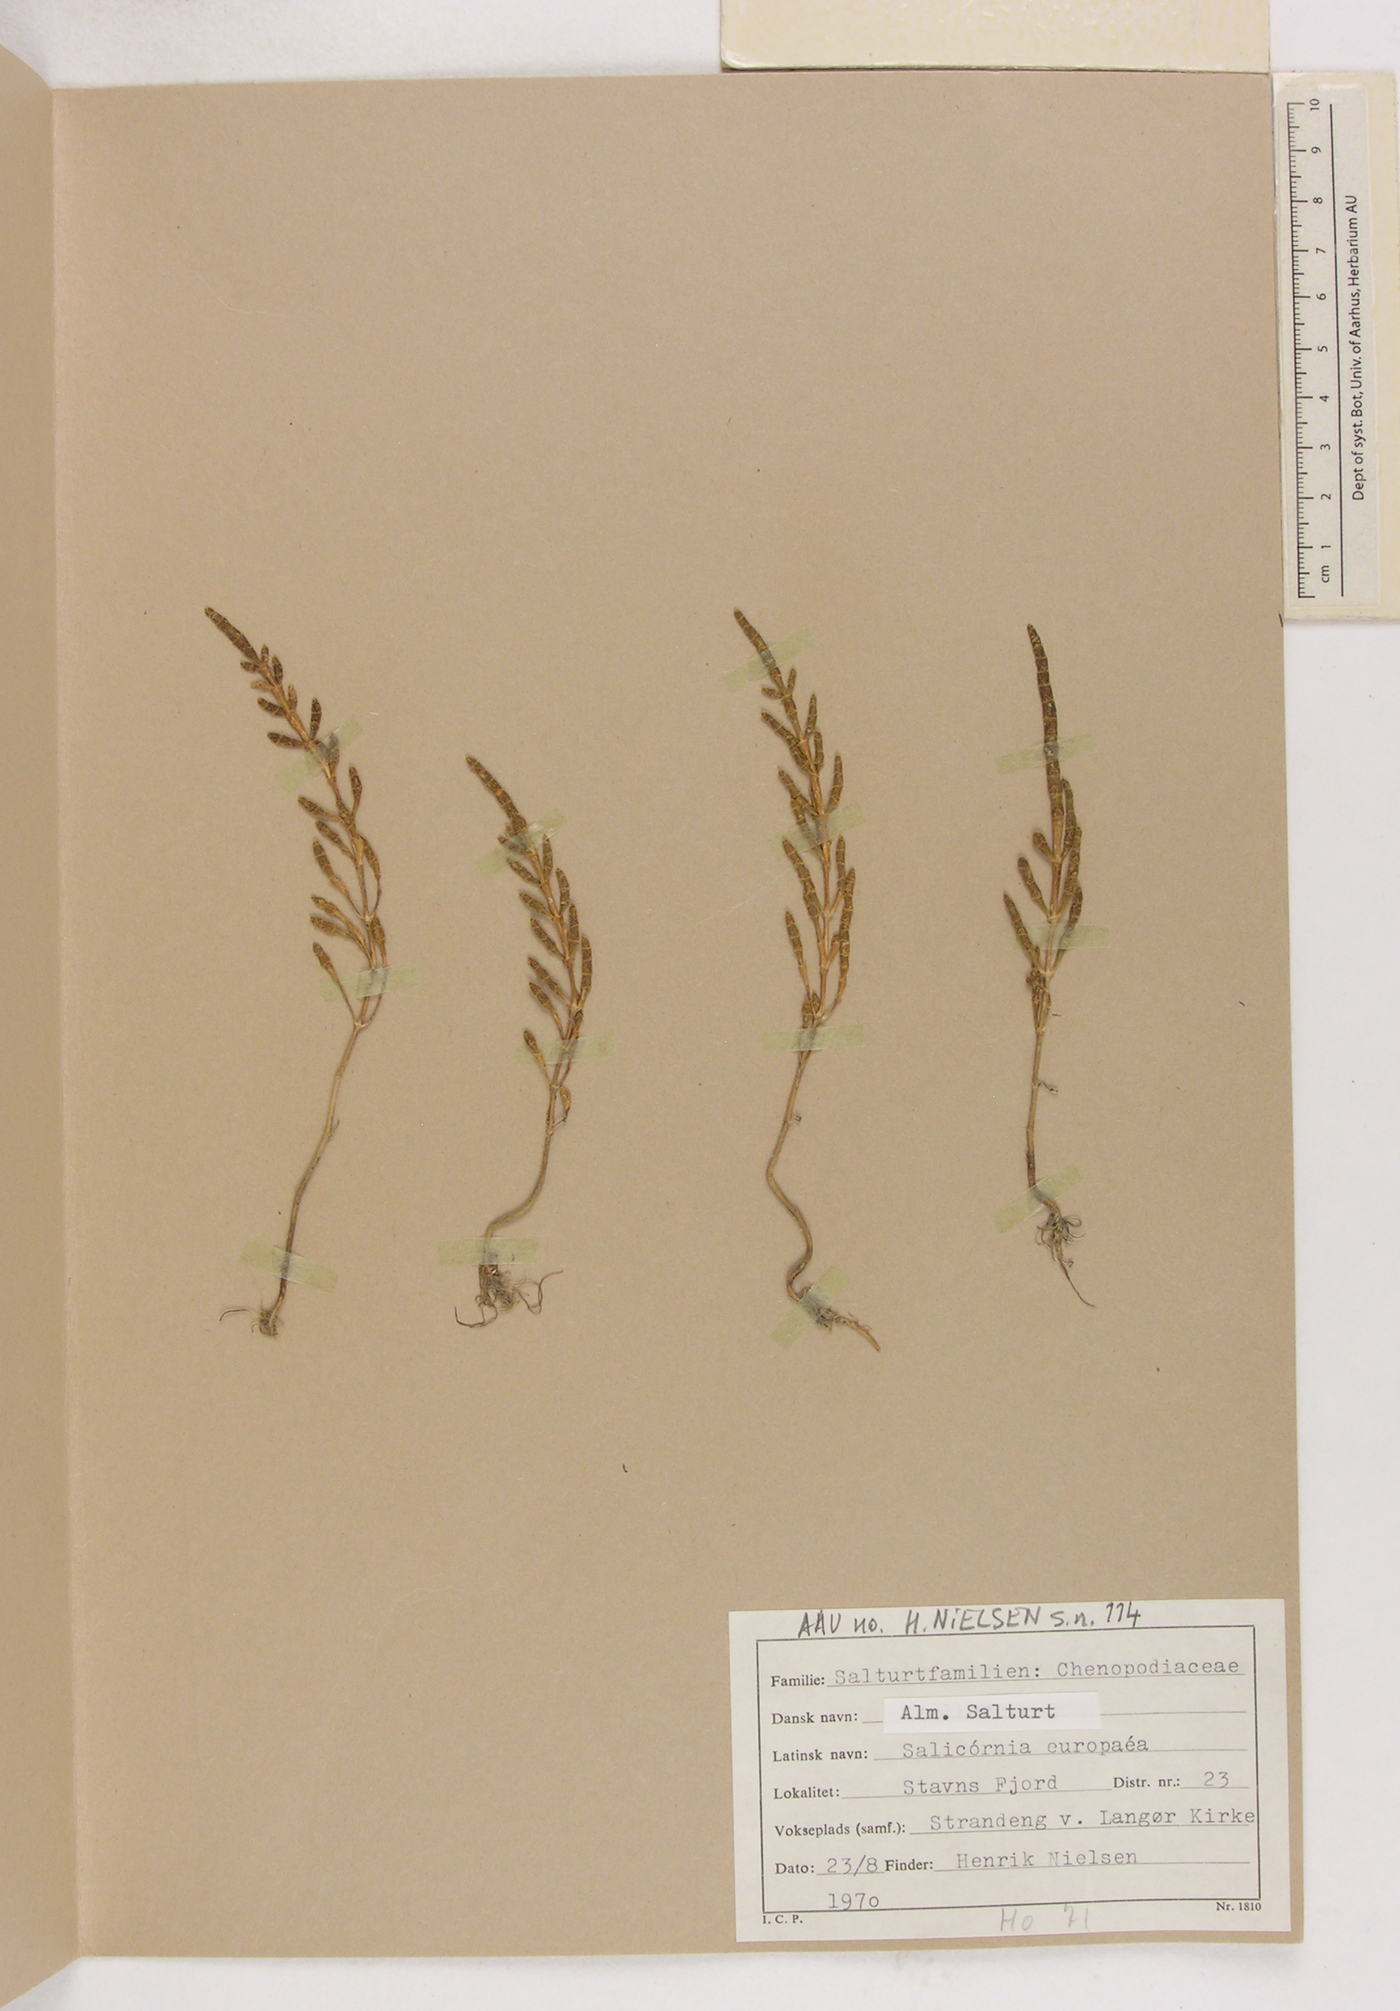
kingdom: Plantae
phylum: Tracheophyta
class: Magnoliopsida
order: Caryophyllales
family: Amaranthaceae
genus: Salicornia
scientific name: Salicornia europaea
